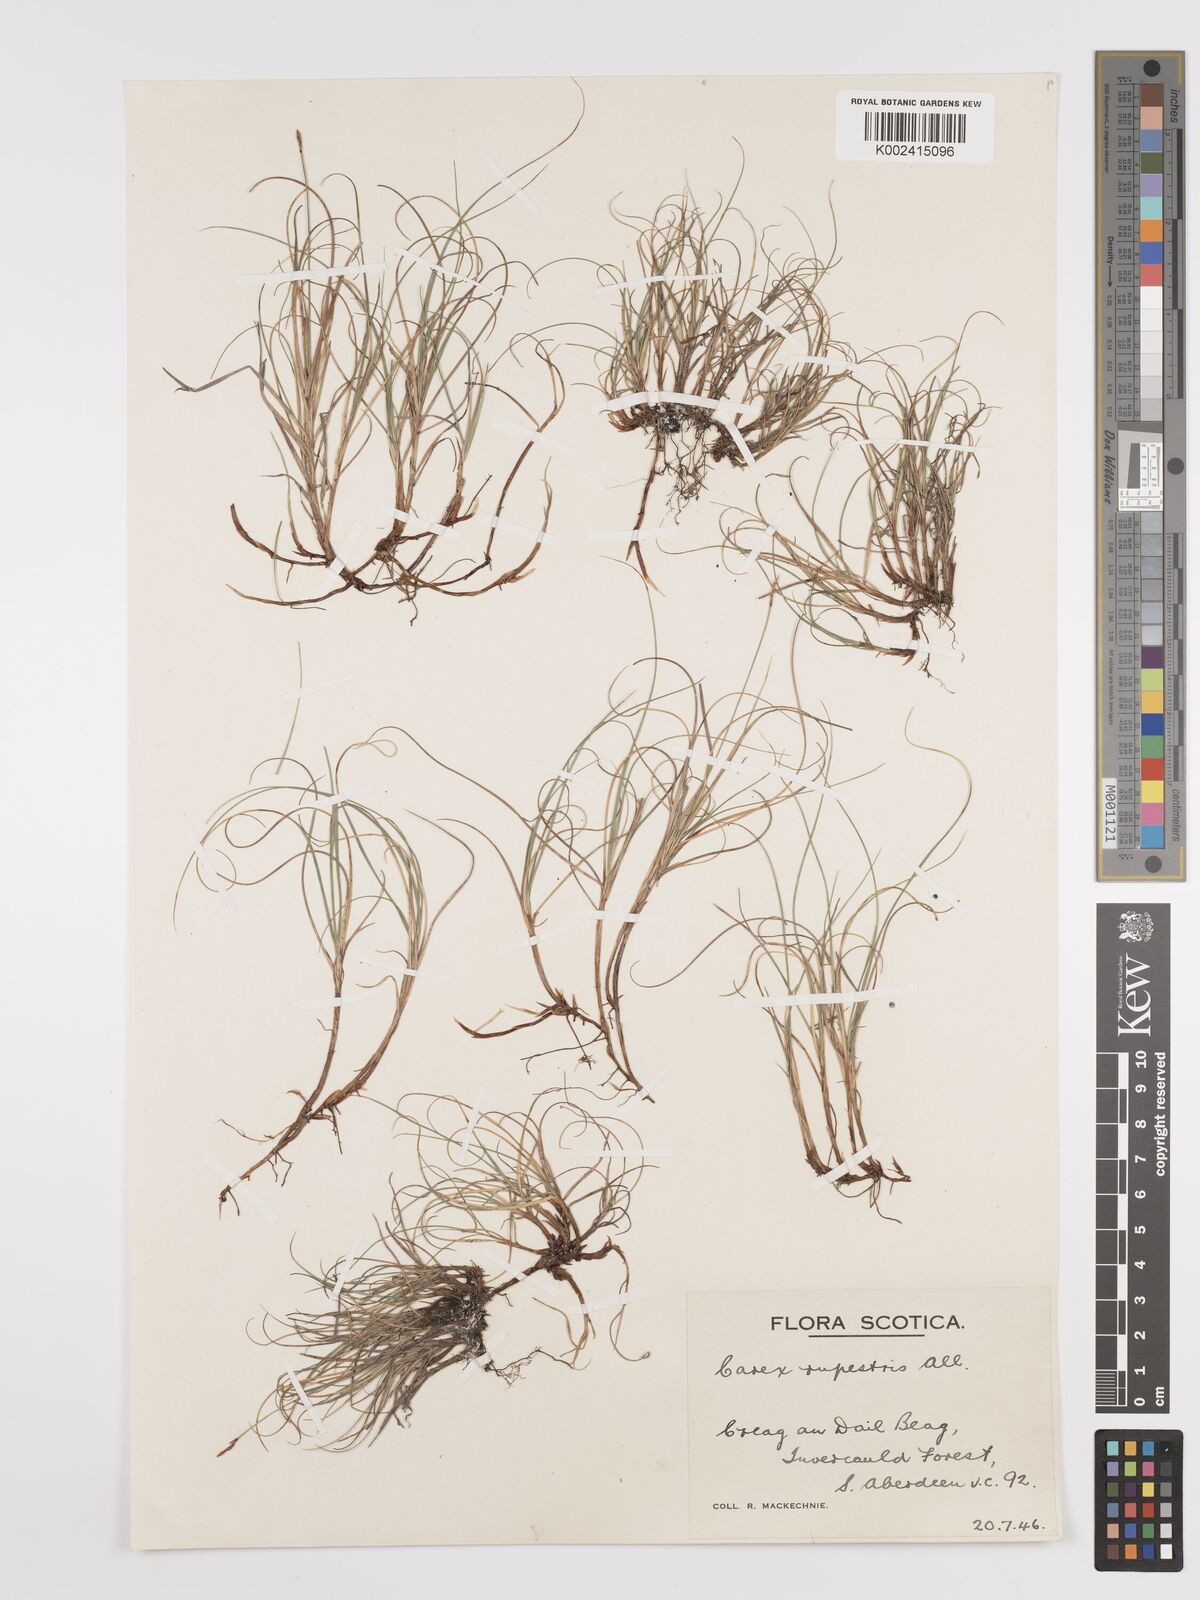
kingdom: Plantae
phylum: Tracheophyta
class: Liliopsida
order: Poales
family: Cyperaceae
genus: Carex
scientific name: Carex rupestris
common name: Rock sedge
